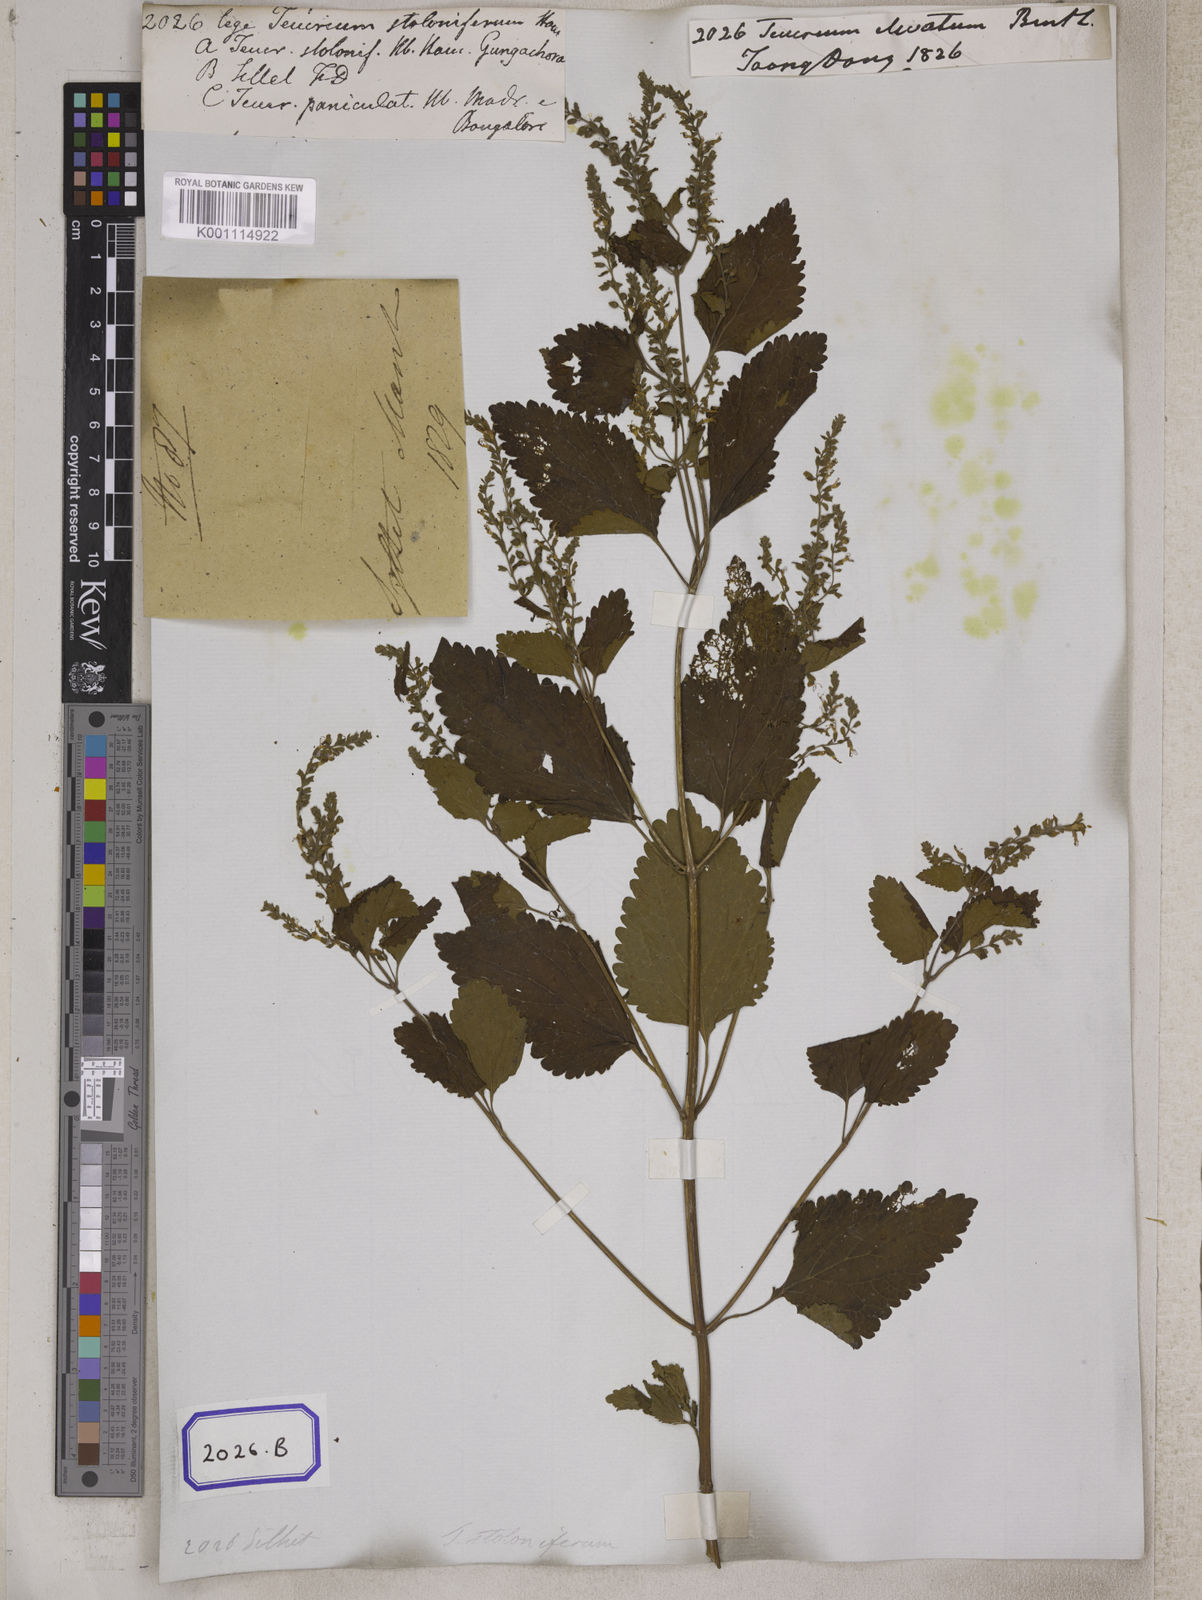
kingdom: Plantae
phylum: Tracheophyta
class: Magnoliopsida
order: Lamiales
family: Lamiaceae
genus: Teucrium
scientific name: Teucrium
